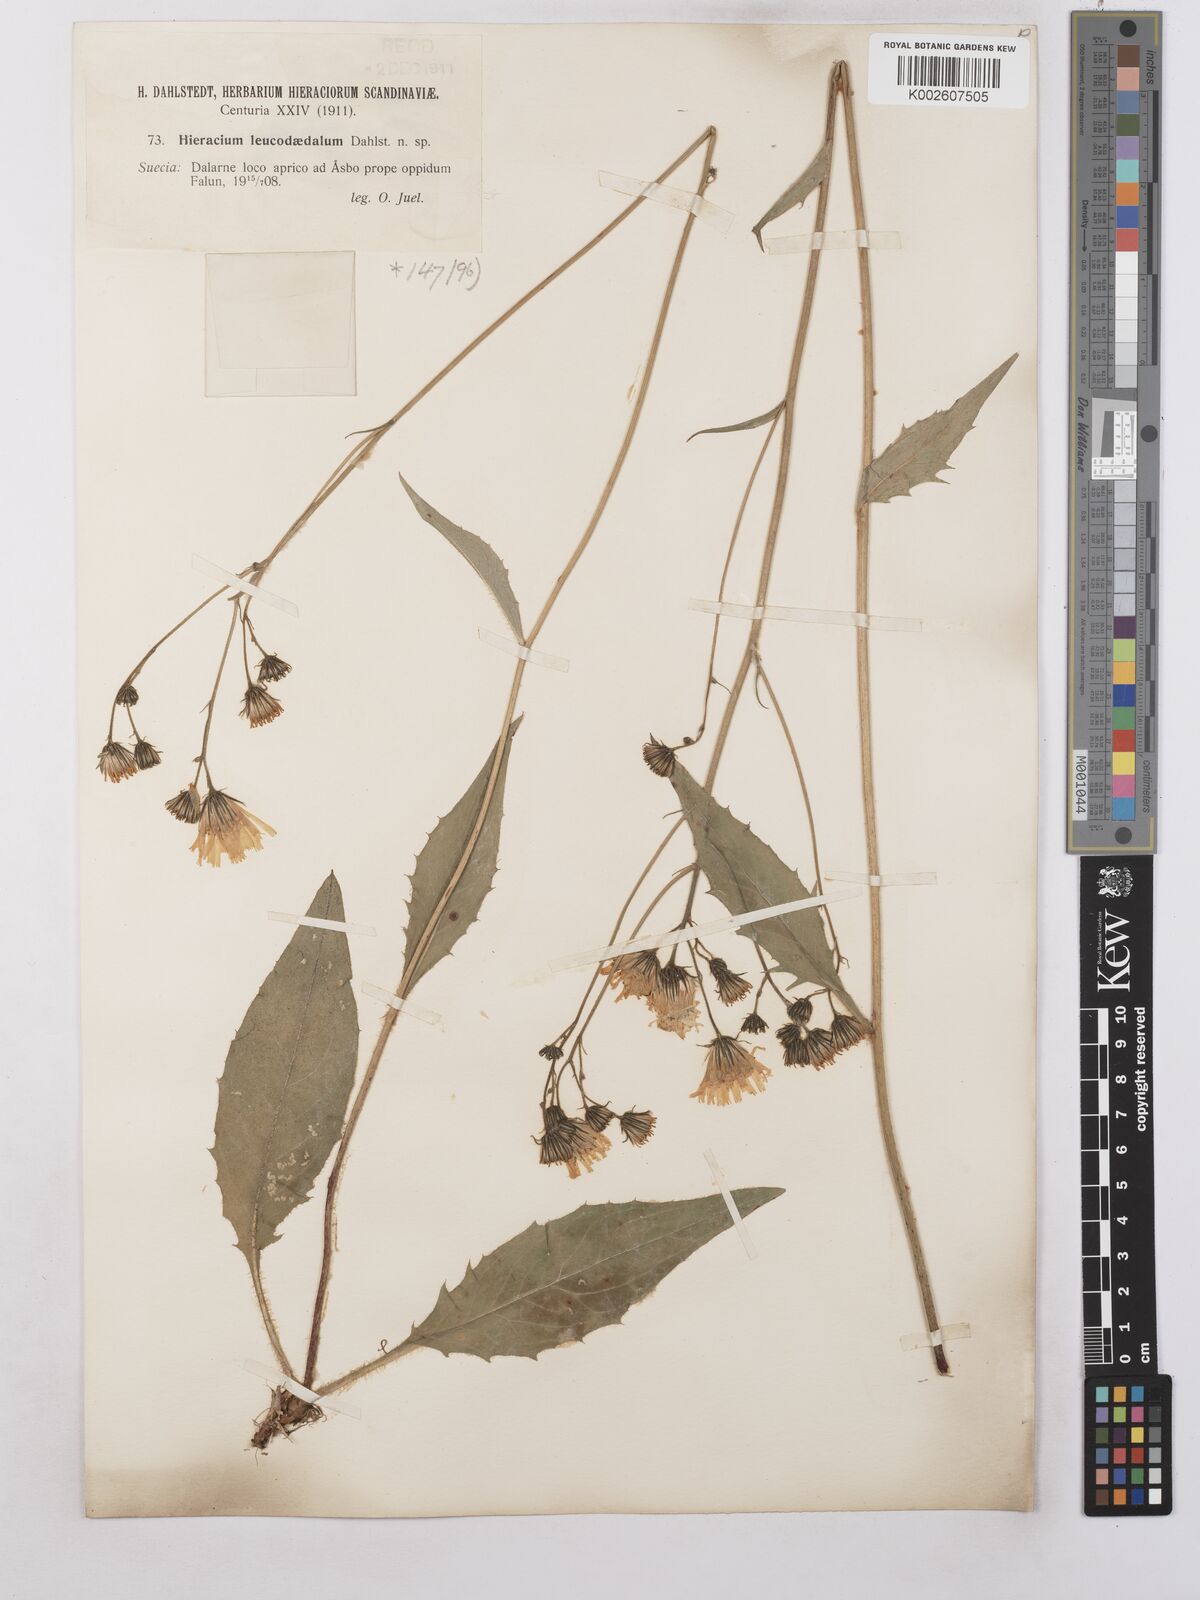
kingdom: Plantae
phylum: Tracheophyta
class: Magnoliopsida
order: Asterales
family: Asteraceae
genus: Hieracium
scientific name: Hieracium caesium
